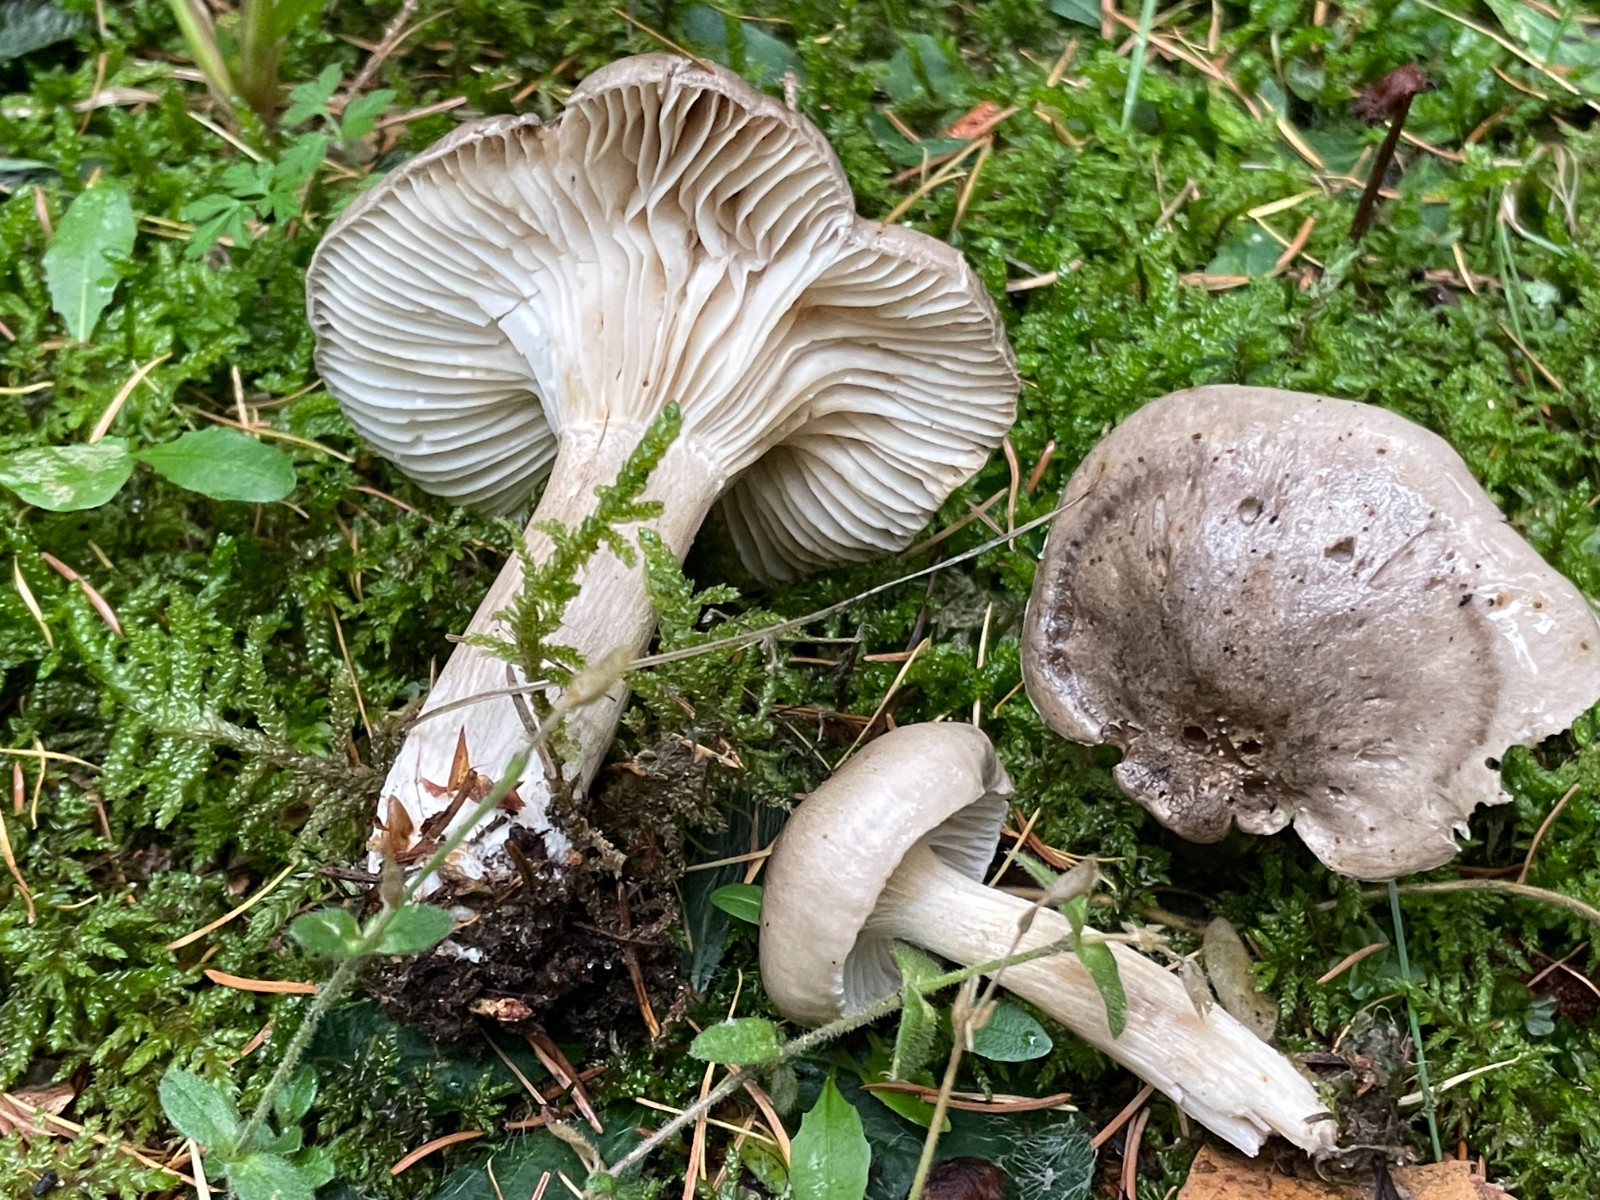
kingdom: Fungi
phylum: Basidiomycota
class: Agaricomycetes
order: Agaricales
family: Hygrophoraceae
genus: Hygrophorus
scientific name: Hygrophorus agathosmus
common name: vellugtende sneglehat
